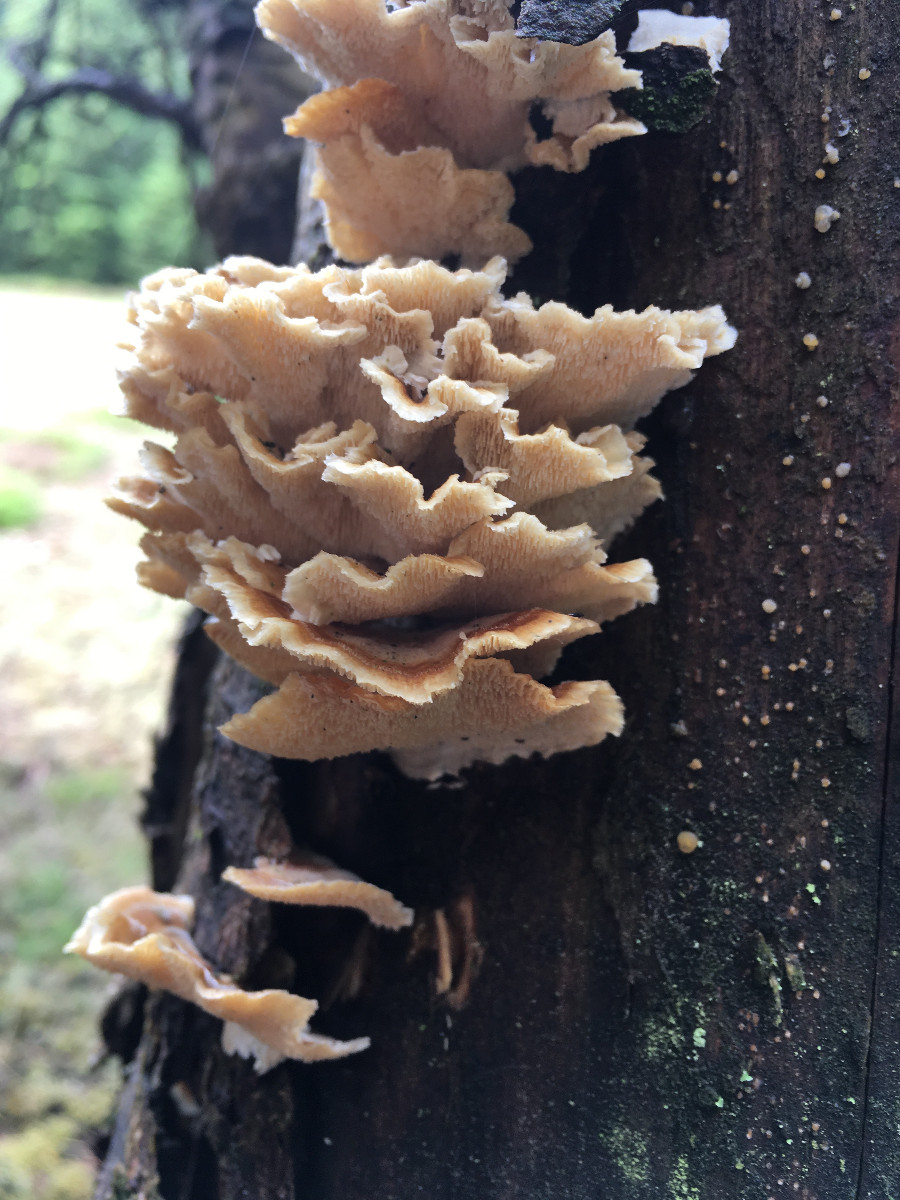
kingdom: Fungi
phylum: Basidiomycota
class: Agaricomycetes
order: Polyporales
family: Polyporaceae
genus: Trametes
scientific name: Trametes versicolor
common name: broget læderporesvamp
